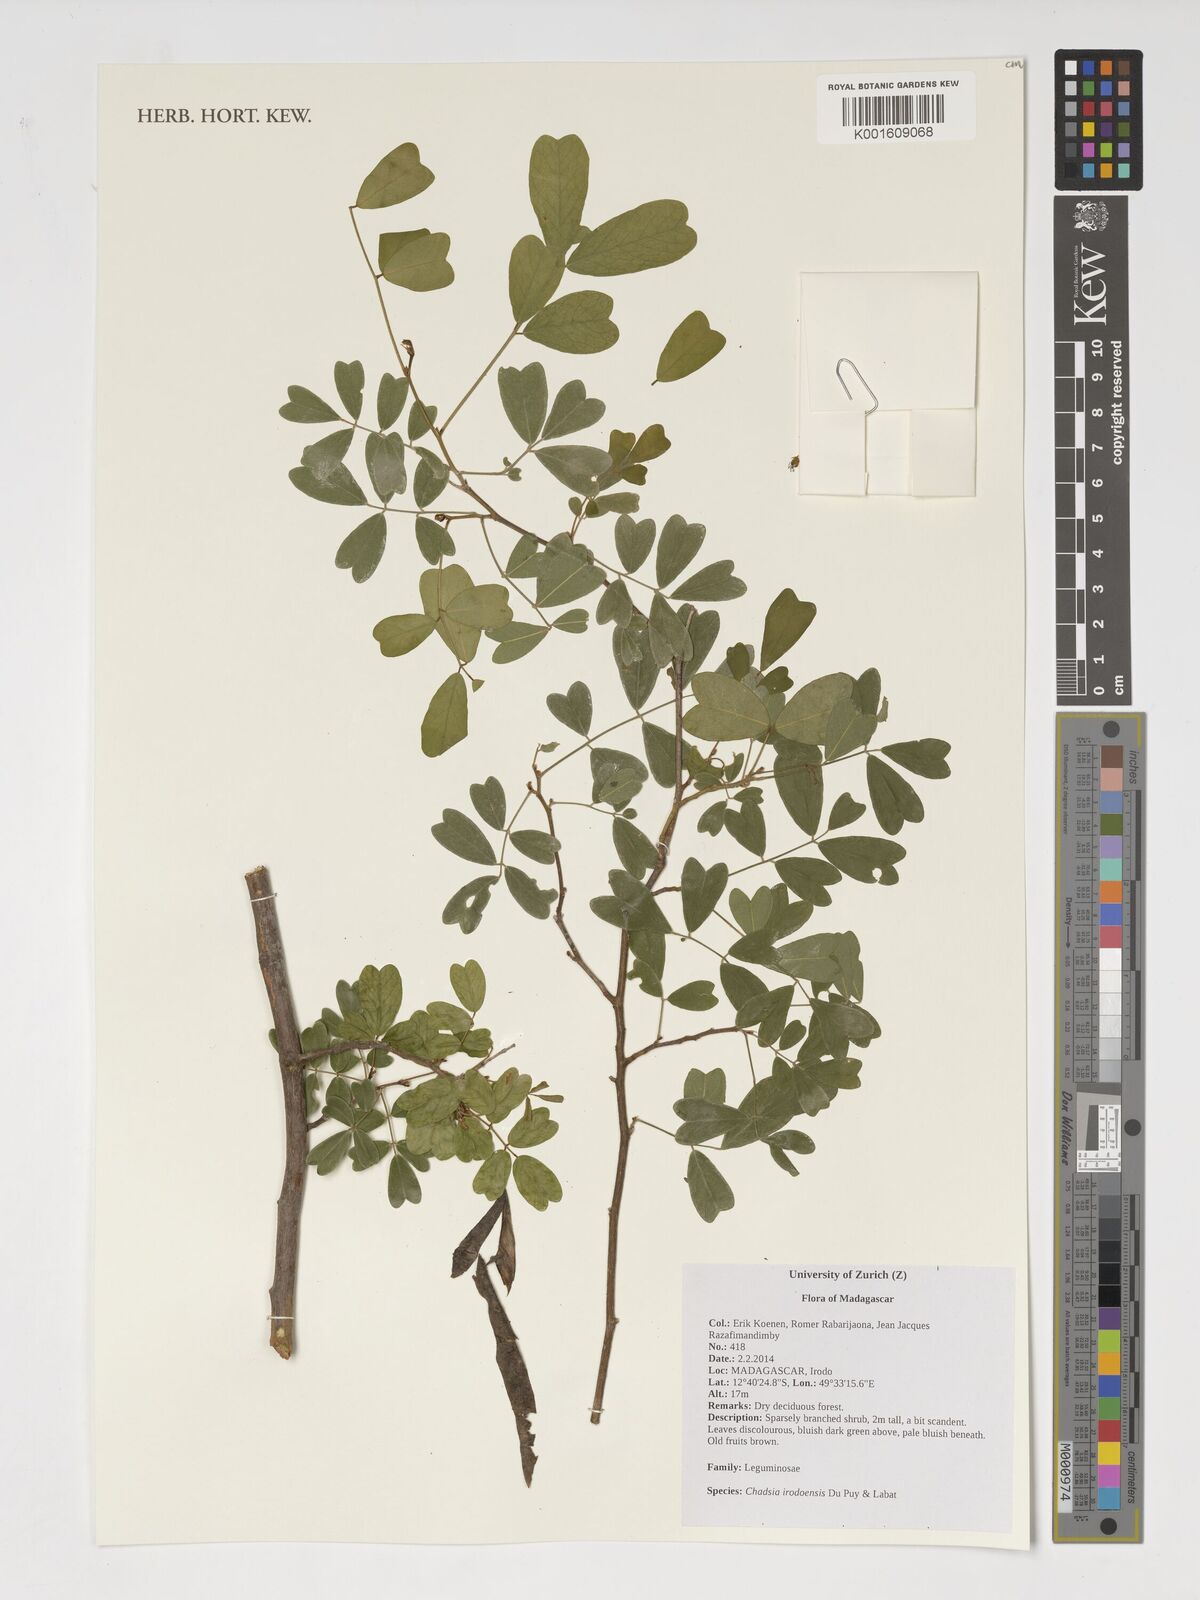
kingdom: Plantae
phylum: Tracheophyta
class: Magnoliopsida
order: Fabales
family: Fabaceae
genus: Chadsia
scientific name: Chadsia irodoensis
